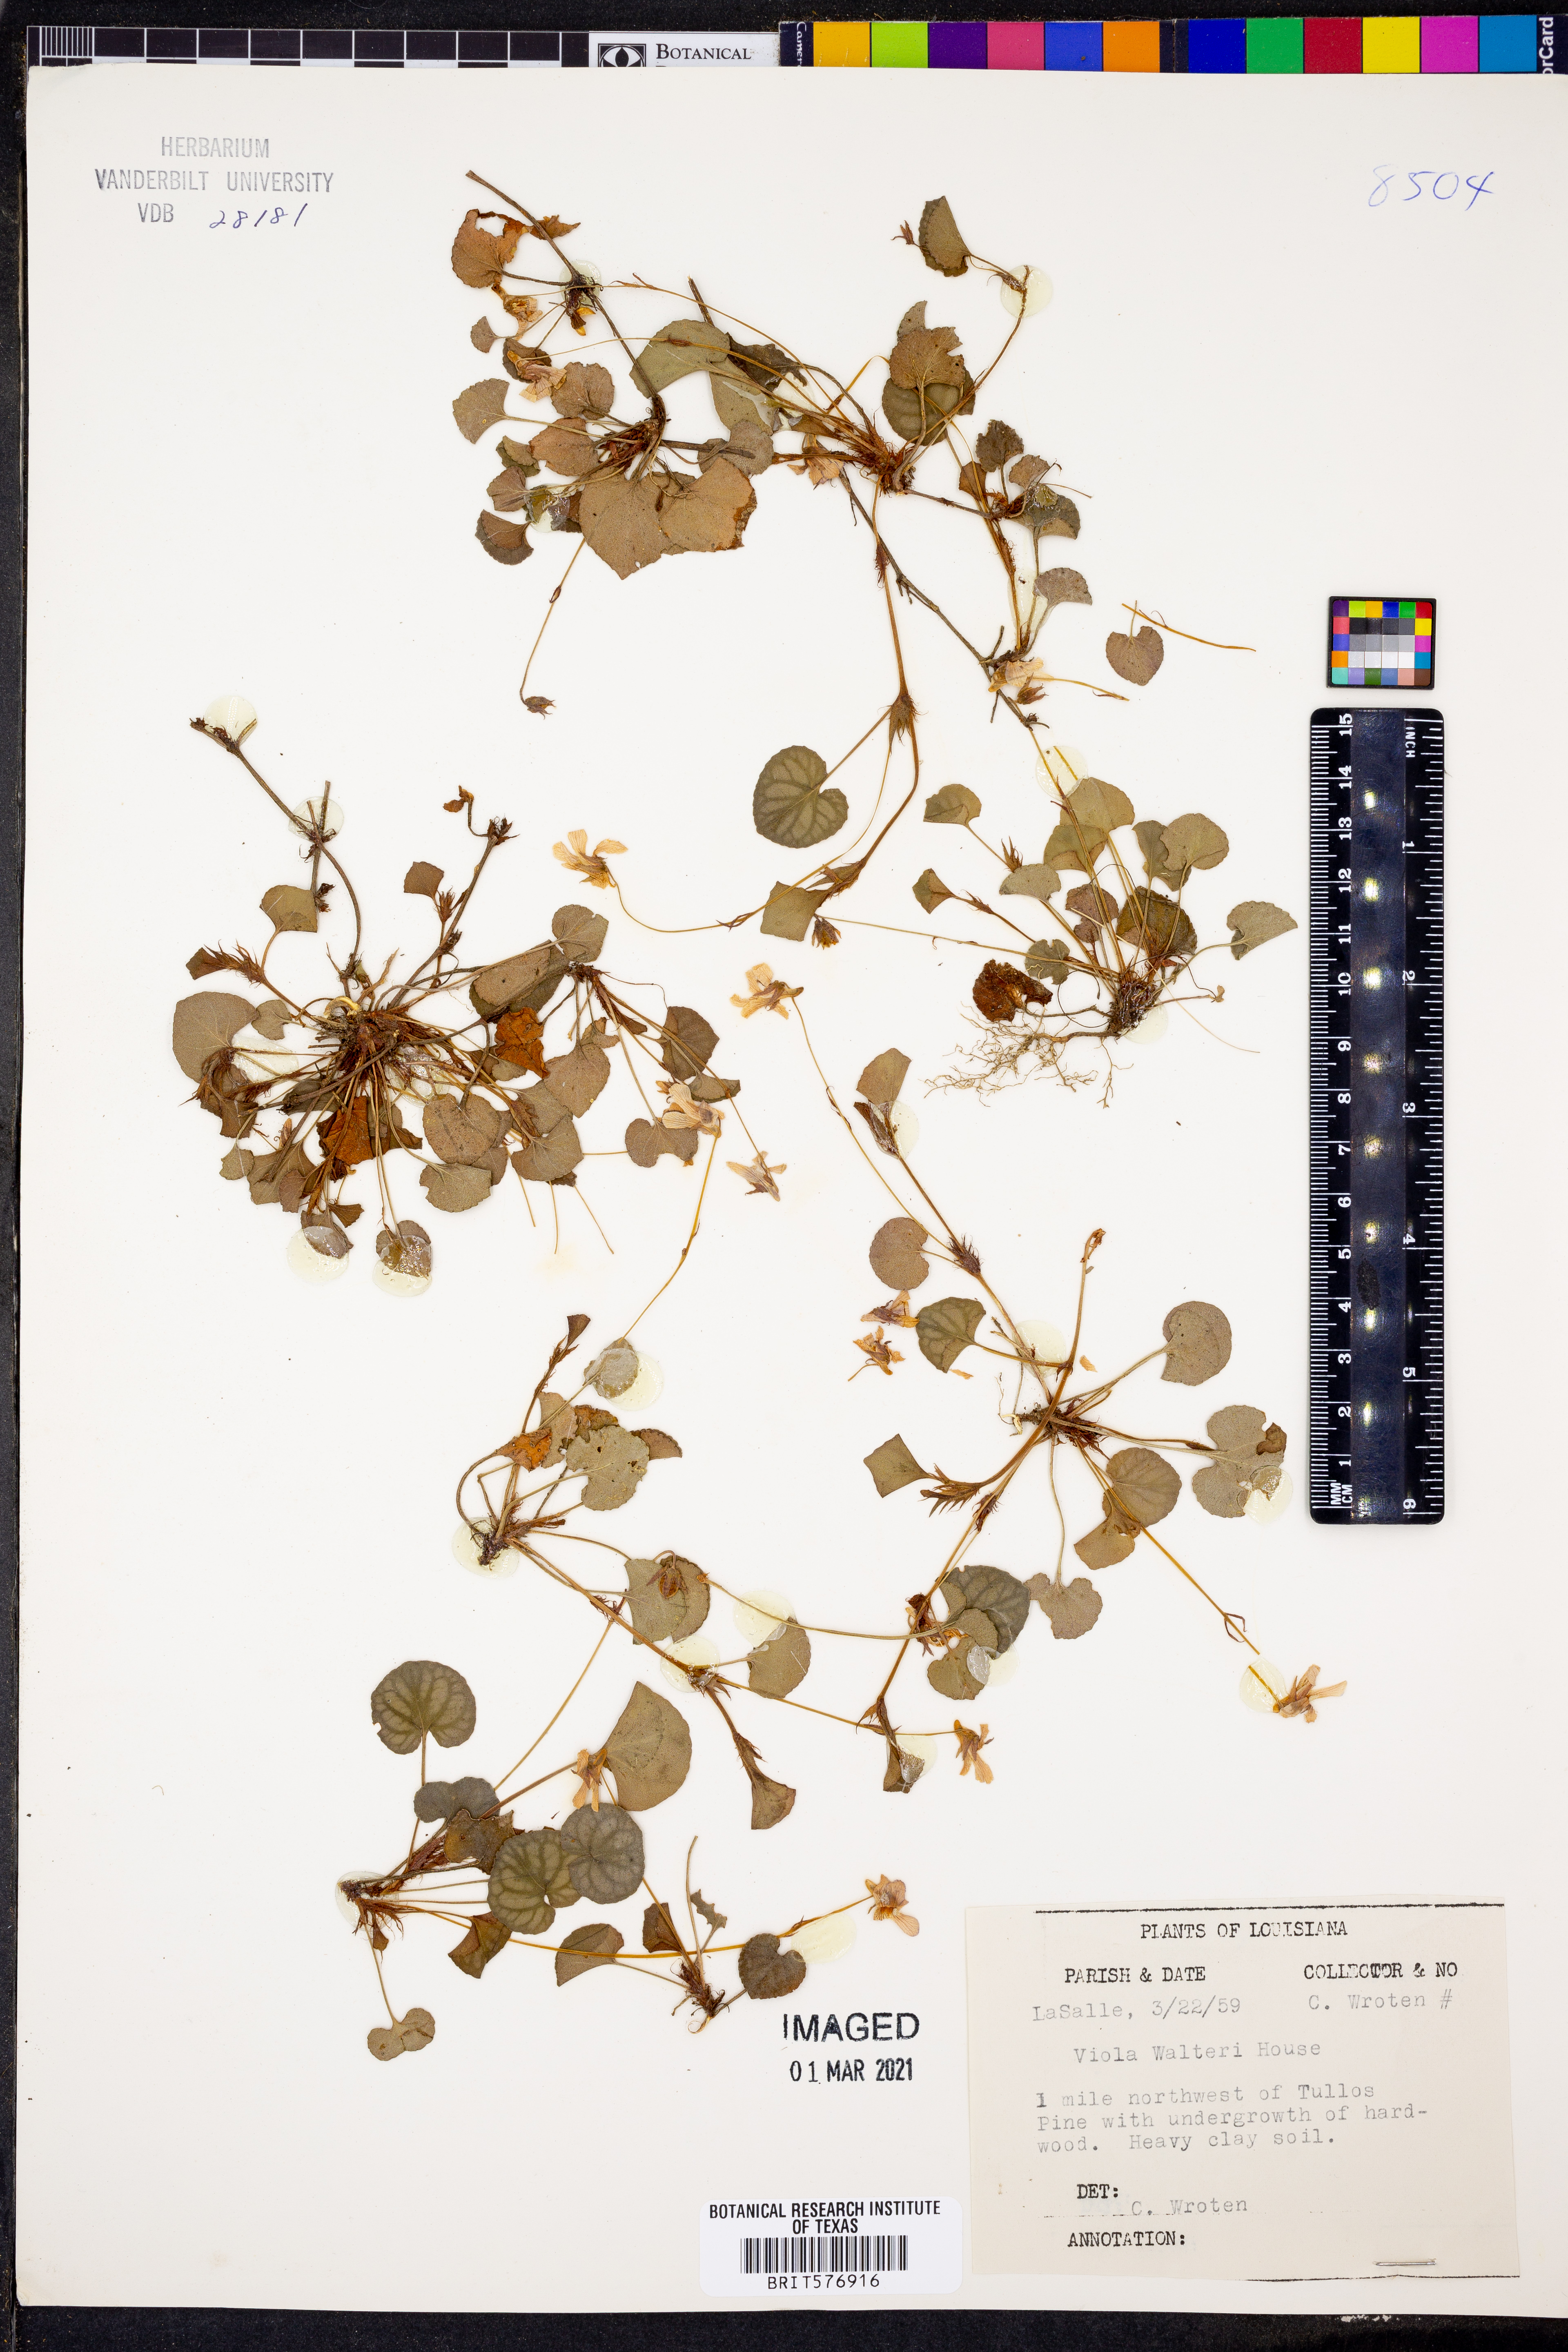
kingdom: Plantae
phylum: Tracheophyta
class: Magnoliopsida
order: Malpighiales
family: Violaceae
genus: Viola
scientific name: Viola walteri
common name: Prostrate southern violet
